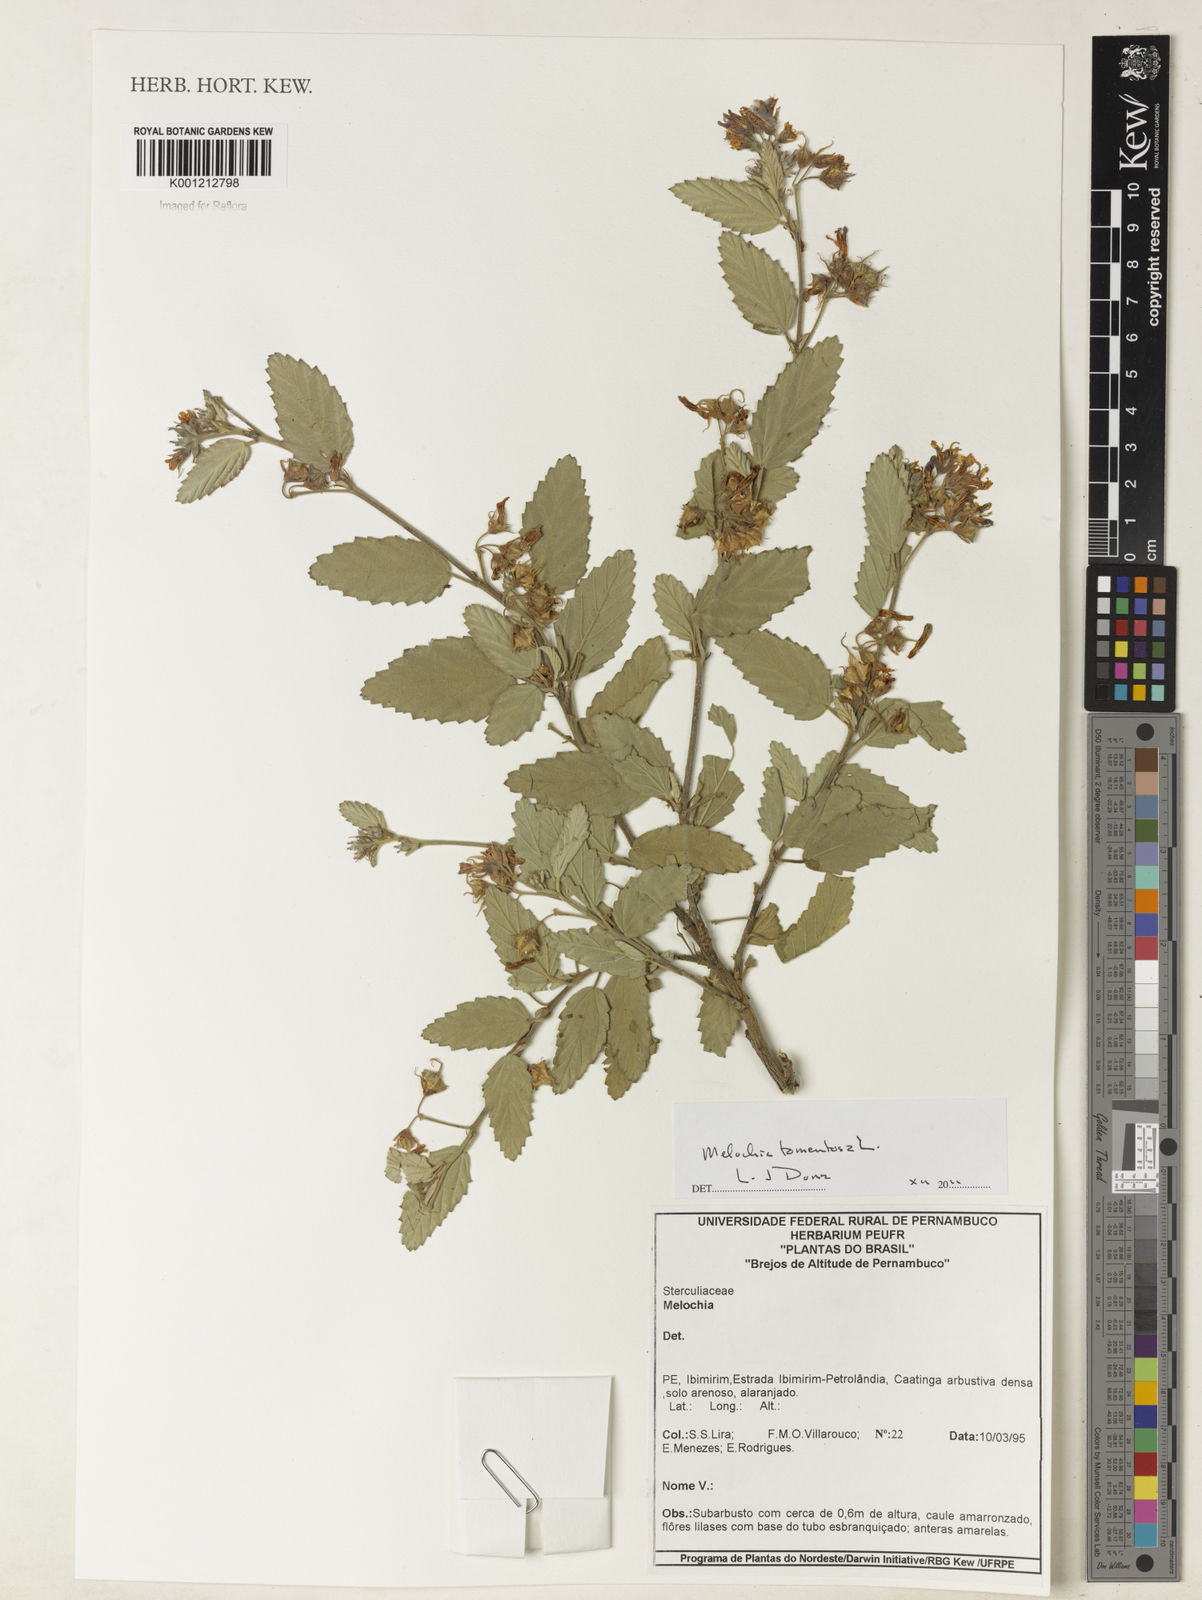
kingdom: Plantae
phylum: Tracheophyta
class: Magnoliopsida
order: Malvales
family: Malvaceae
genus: Melochia
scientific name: Melochia tomentosa
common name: Black torch
